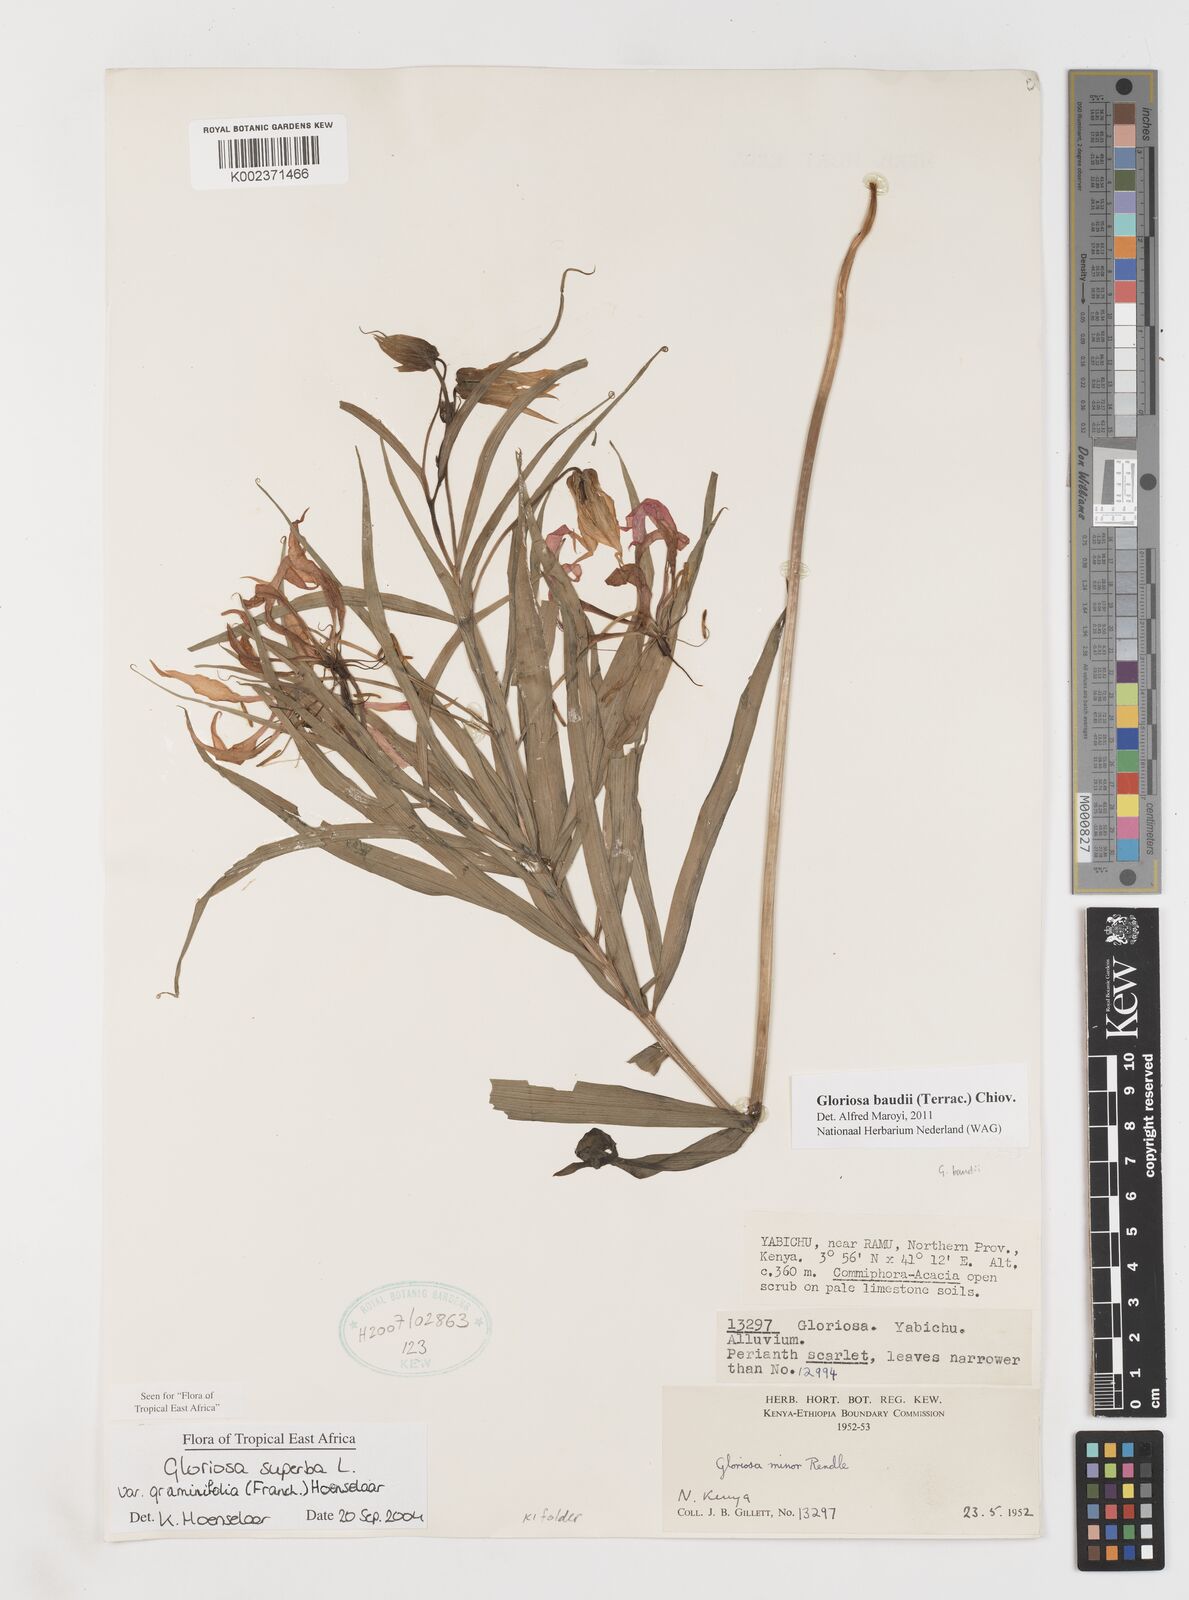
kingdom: Plantae
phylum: Tracheophyta
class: Liliopsida
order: Liliales
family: Colchicaceae
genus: Gloriosa
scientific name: Gloriosa baudii
